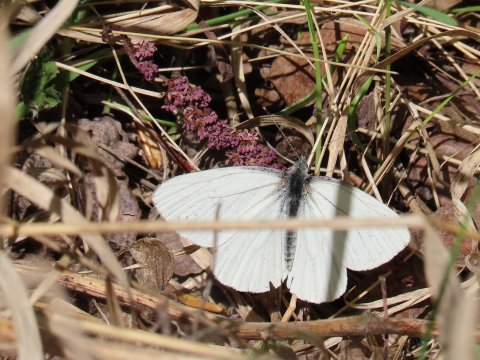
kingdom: Animalia
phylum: Arthropoda
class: Insecta
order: Lepidoptera
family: Pieridae
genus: Pieris
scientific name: Pieris oleracea
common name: Mustard White
